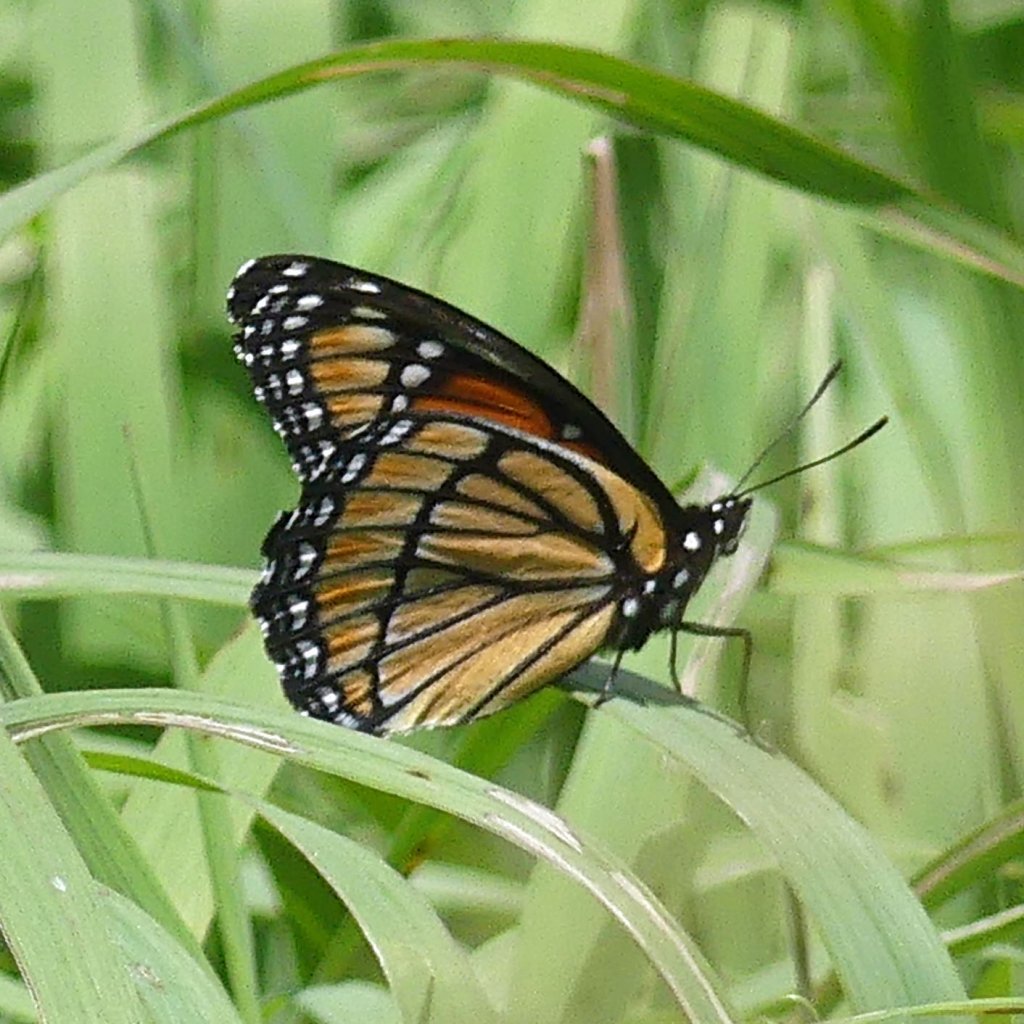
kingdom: Animalia
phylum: Arthropoda
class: Insecta
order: Lepidoptera
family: Nymphalidae
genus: Limenitis
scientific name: Limenitis archippus
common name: Viceroy
